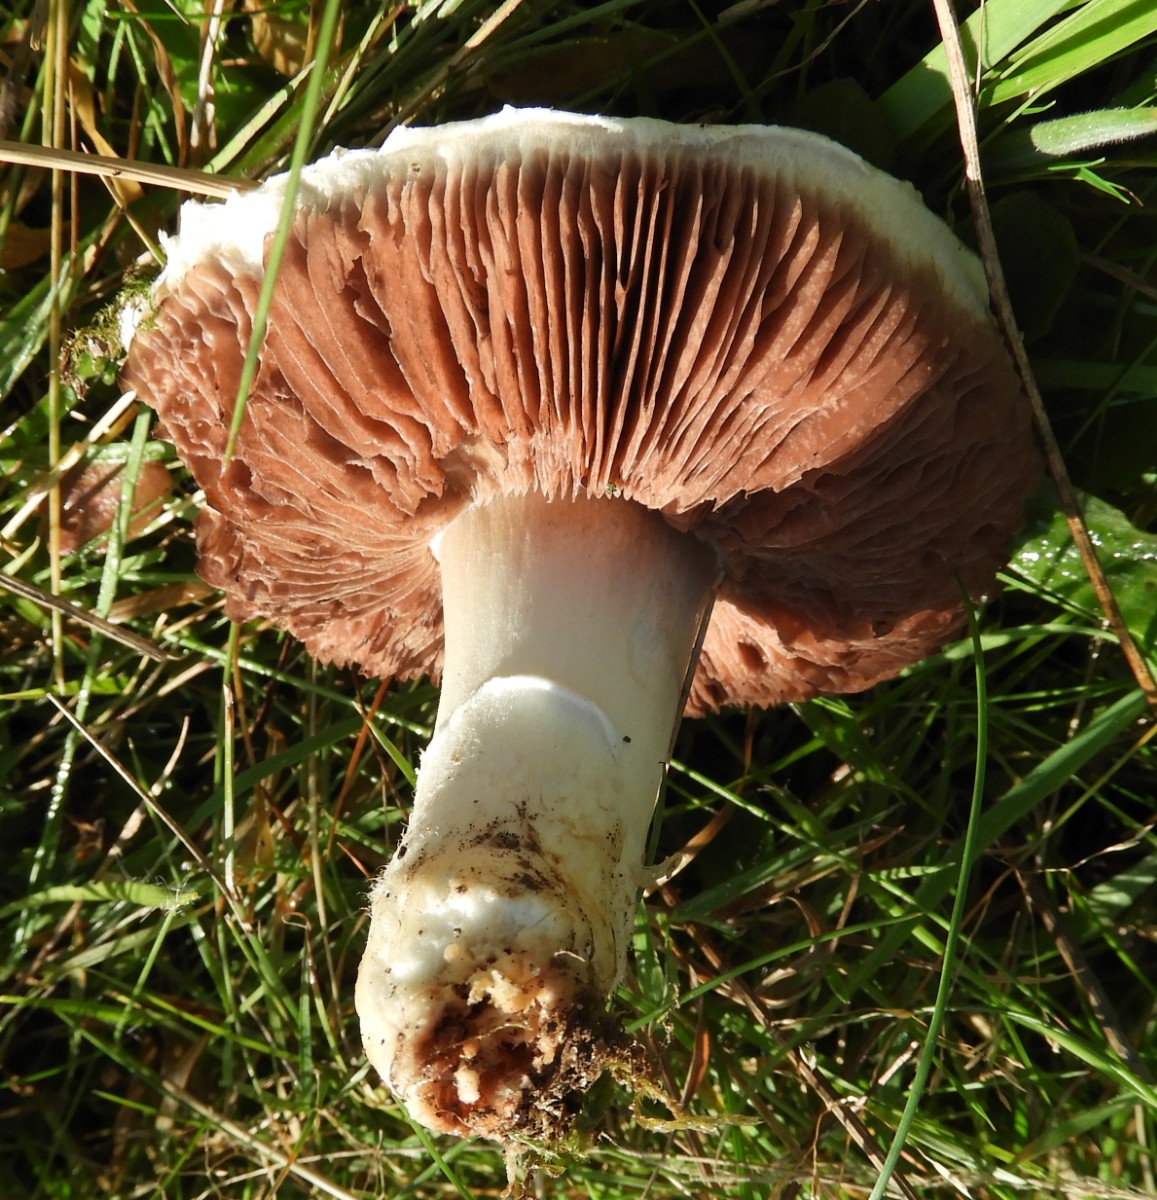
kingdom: Fungi
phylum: Basidiomycota
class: Agaricomycetes
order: Agaricales
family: Agaricaceae
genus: Agaricus
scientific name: Agaricus
